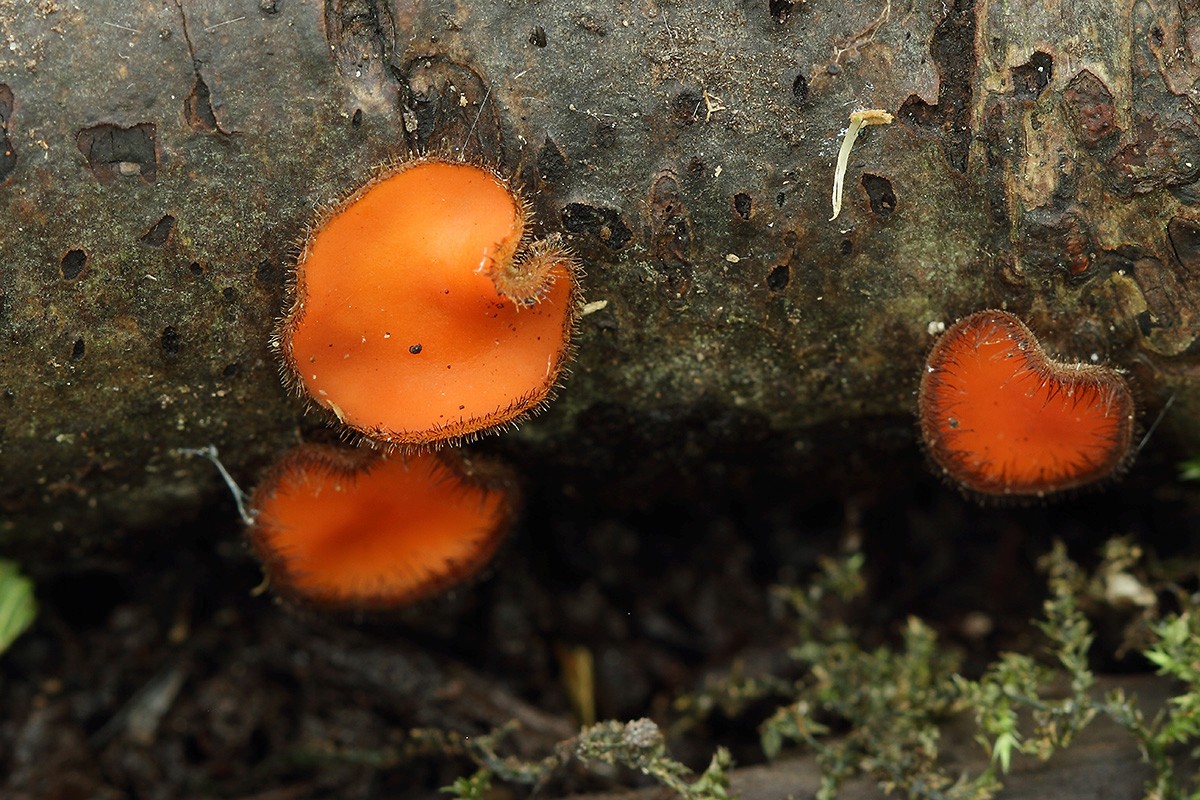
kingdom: Fungi
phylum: Ascomycota
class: Pezizomycetes
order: Pezizales
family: Pyronemataceae
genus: Scutellinia
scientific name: Scutellinia scutellata
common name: frynset skjoldbæger
